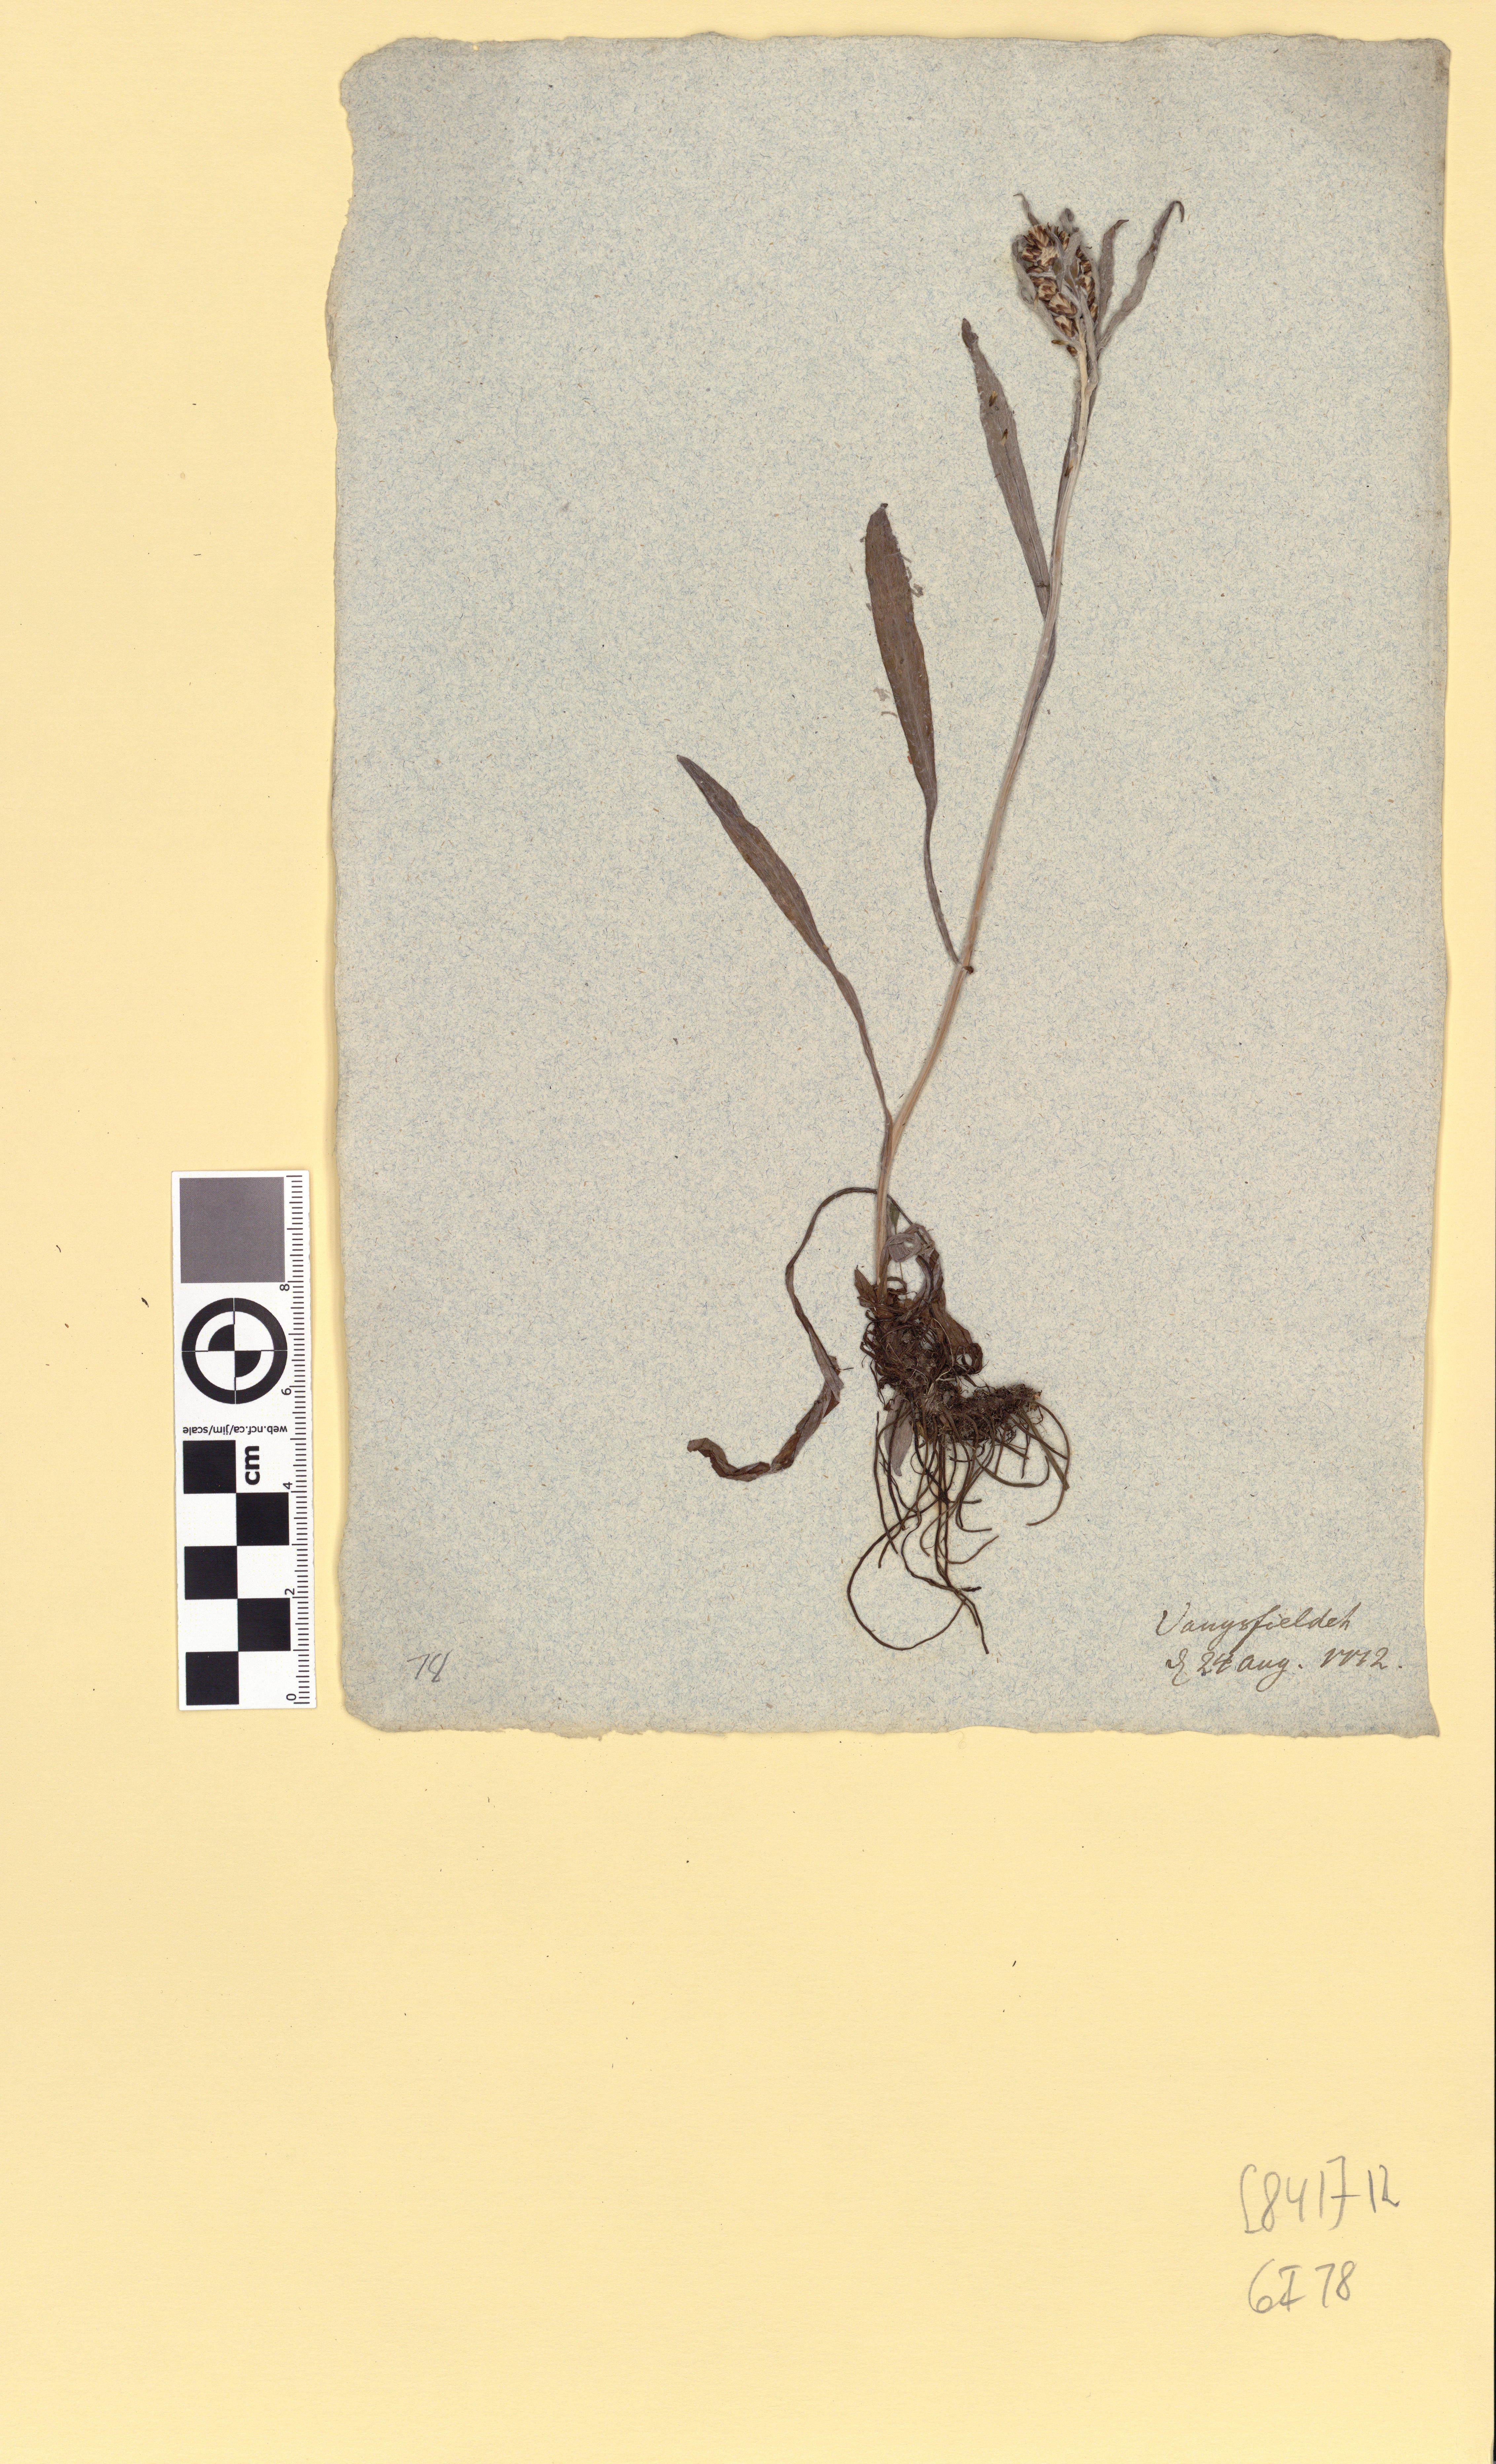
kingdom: Plantae
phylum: Tracheophyta
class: Magnoliopsida
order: Asterales
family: Asteraceae
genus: Omalotheca
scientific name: Omalotheca norvegica
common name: Norwegian arctic-cudweed
